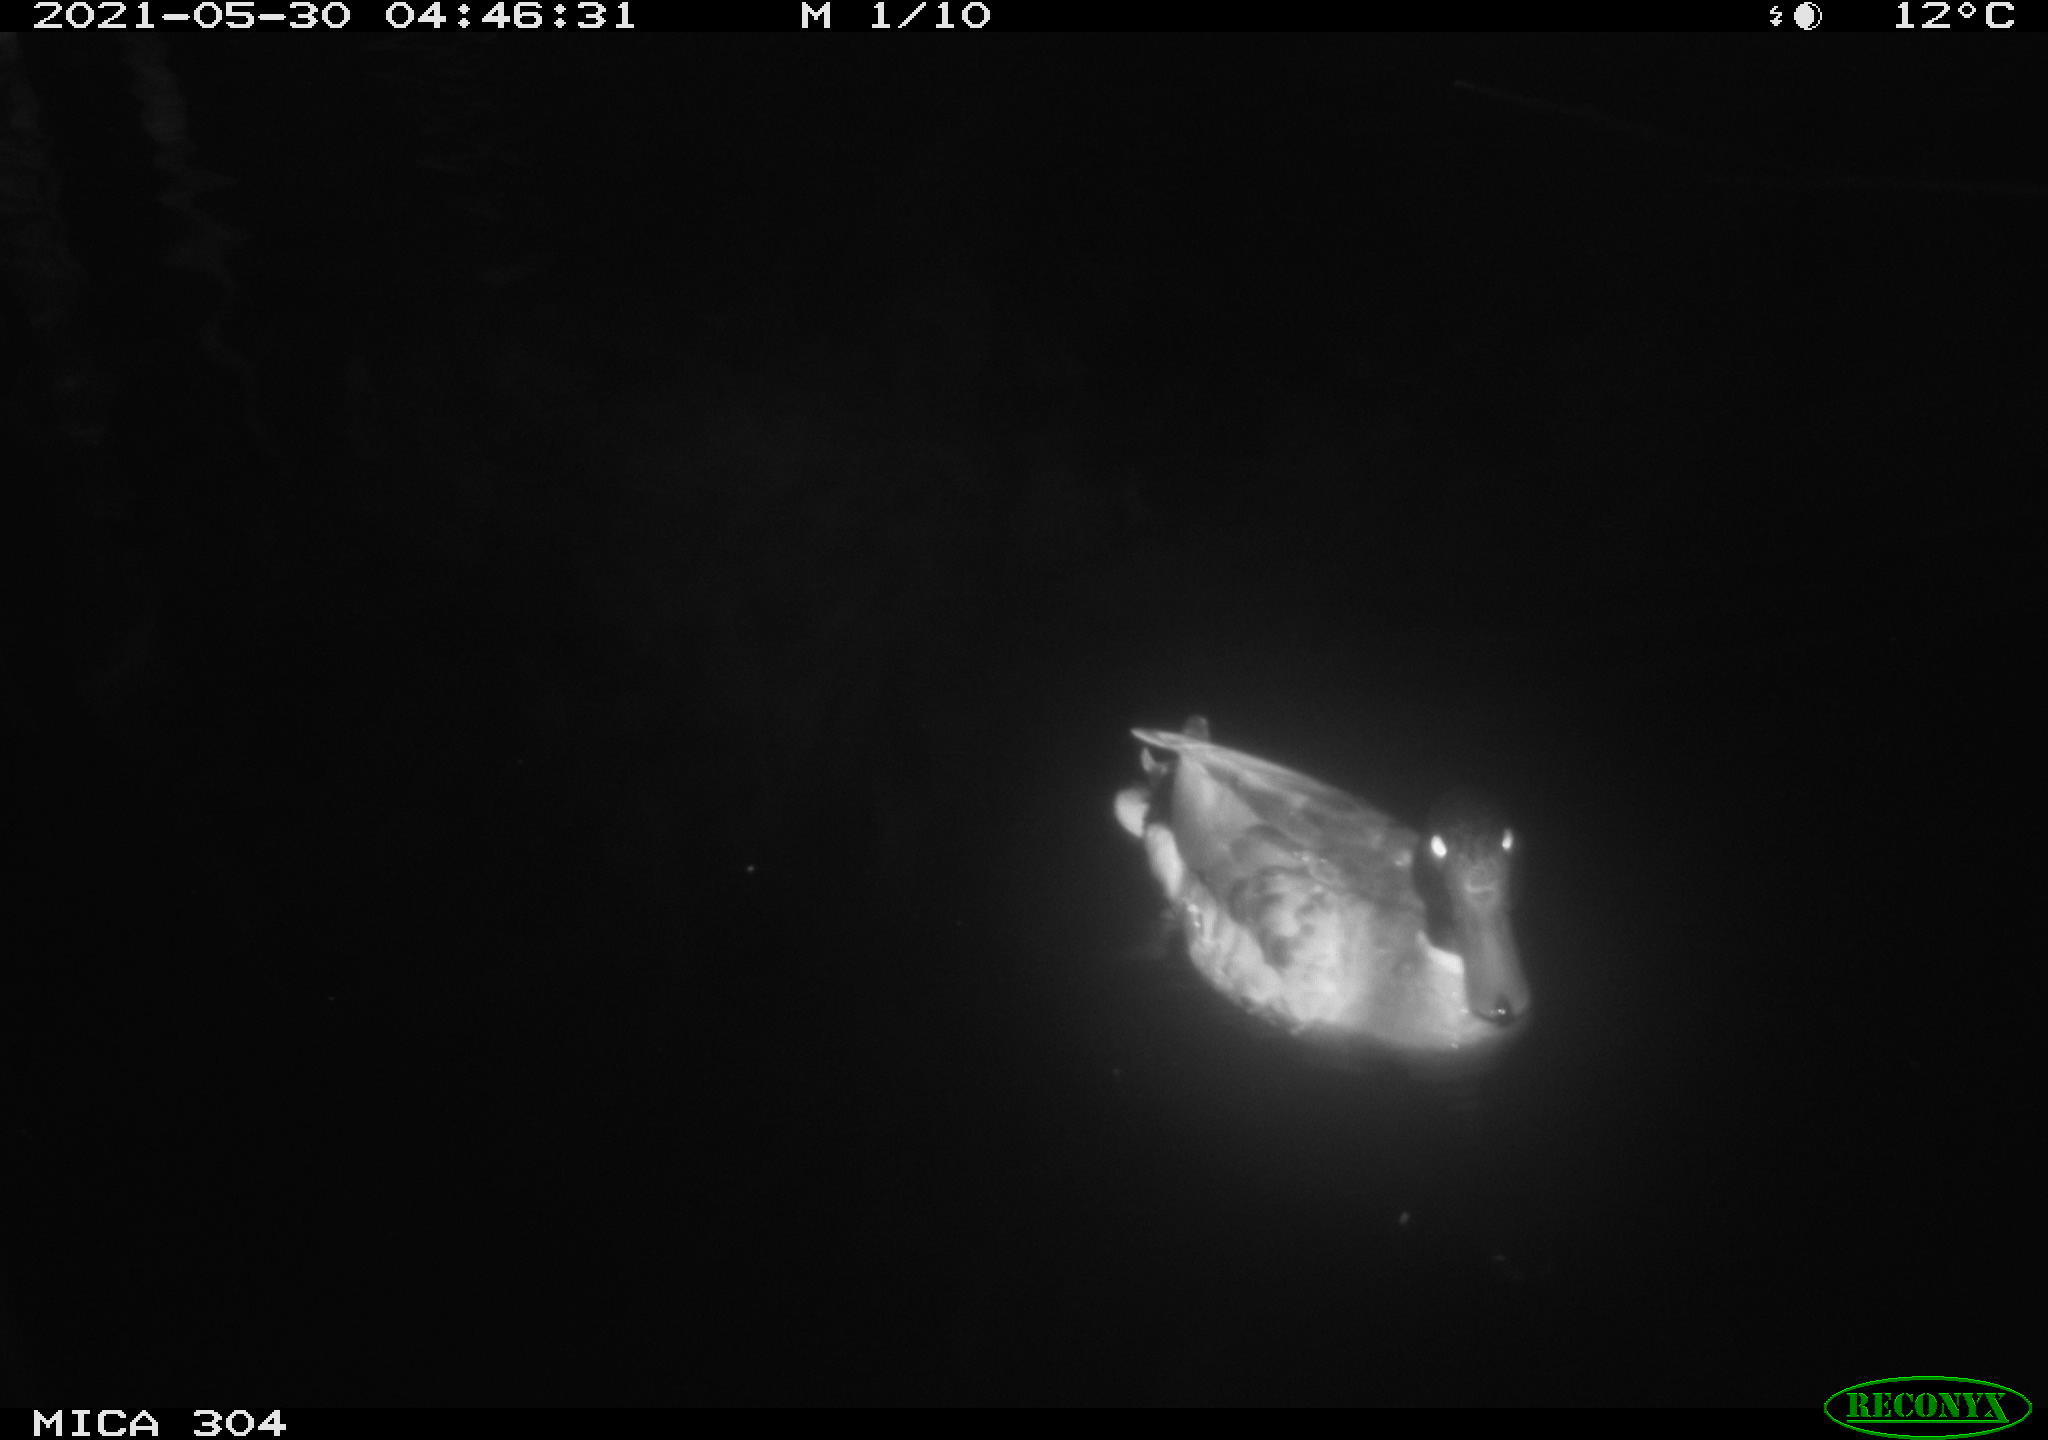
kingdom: Animalia
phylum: Chordata
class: Aves
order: Anseriformes
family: Anatidae
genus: Anas
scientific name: Anas platyrhynchos
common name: Mallard
